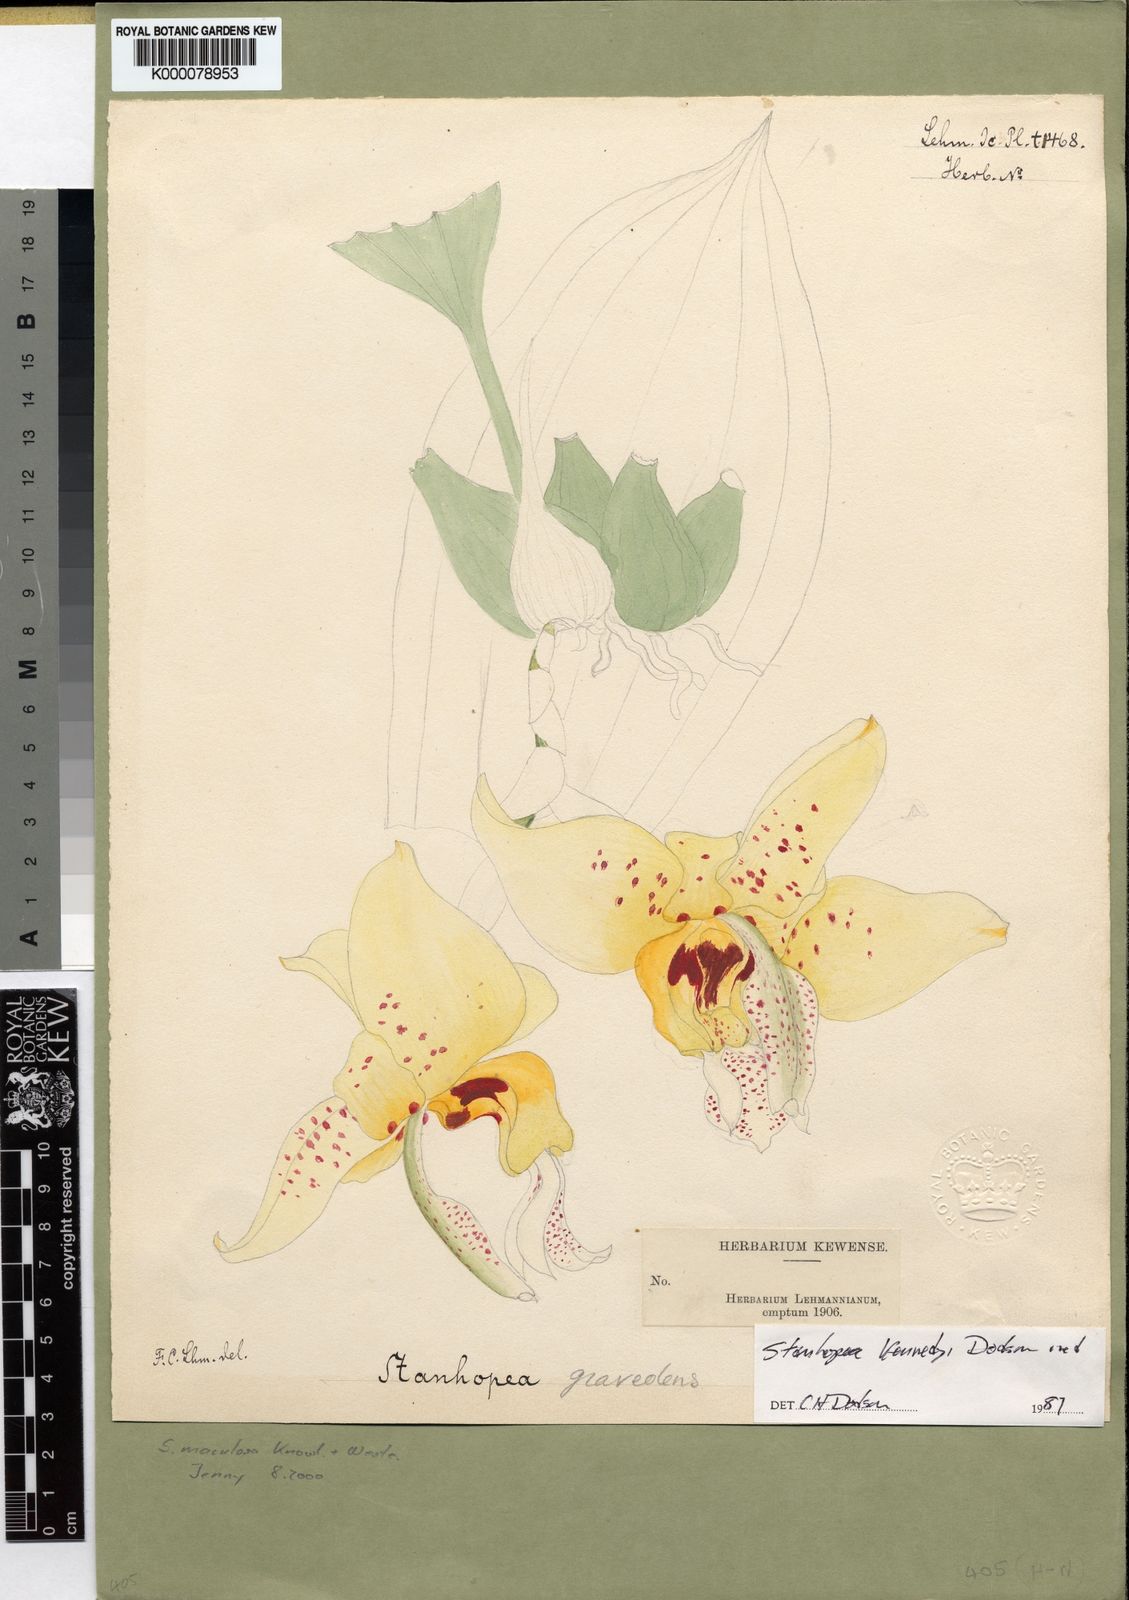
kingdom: Plantae
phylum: Tracheophyta
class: Liliopsida
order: Asparagales
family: Orchidaceae
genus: Stanhopea
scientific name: Stanhopea maculosa
